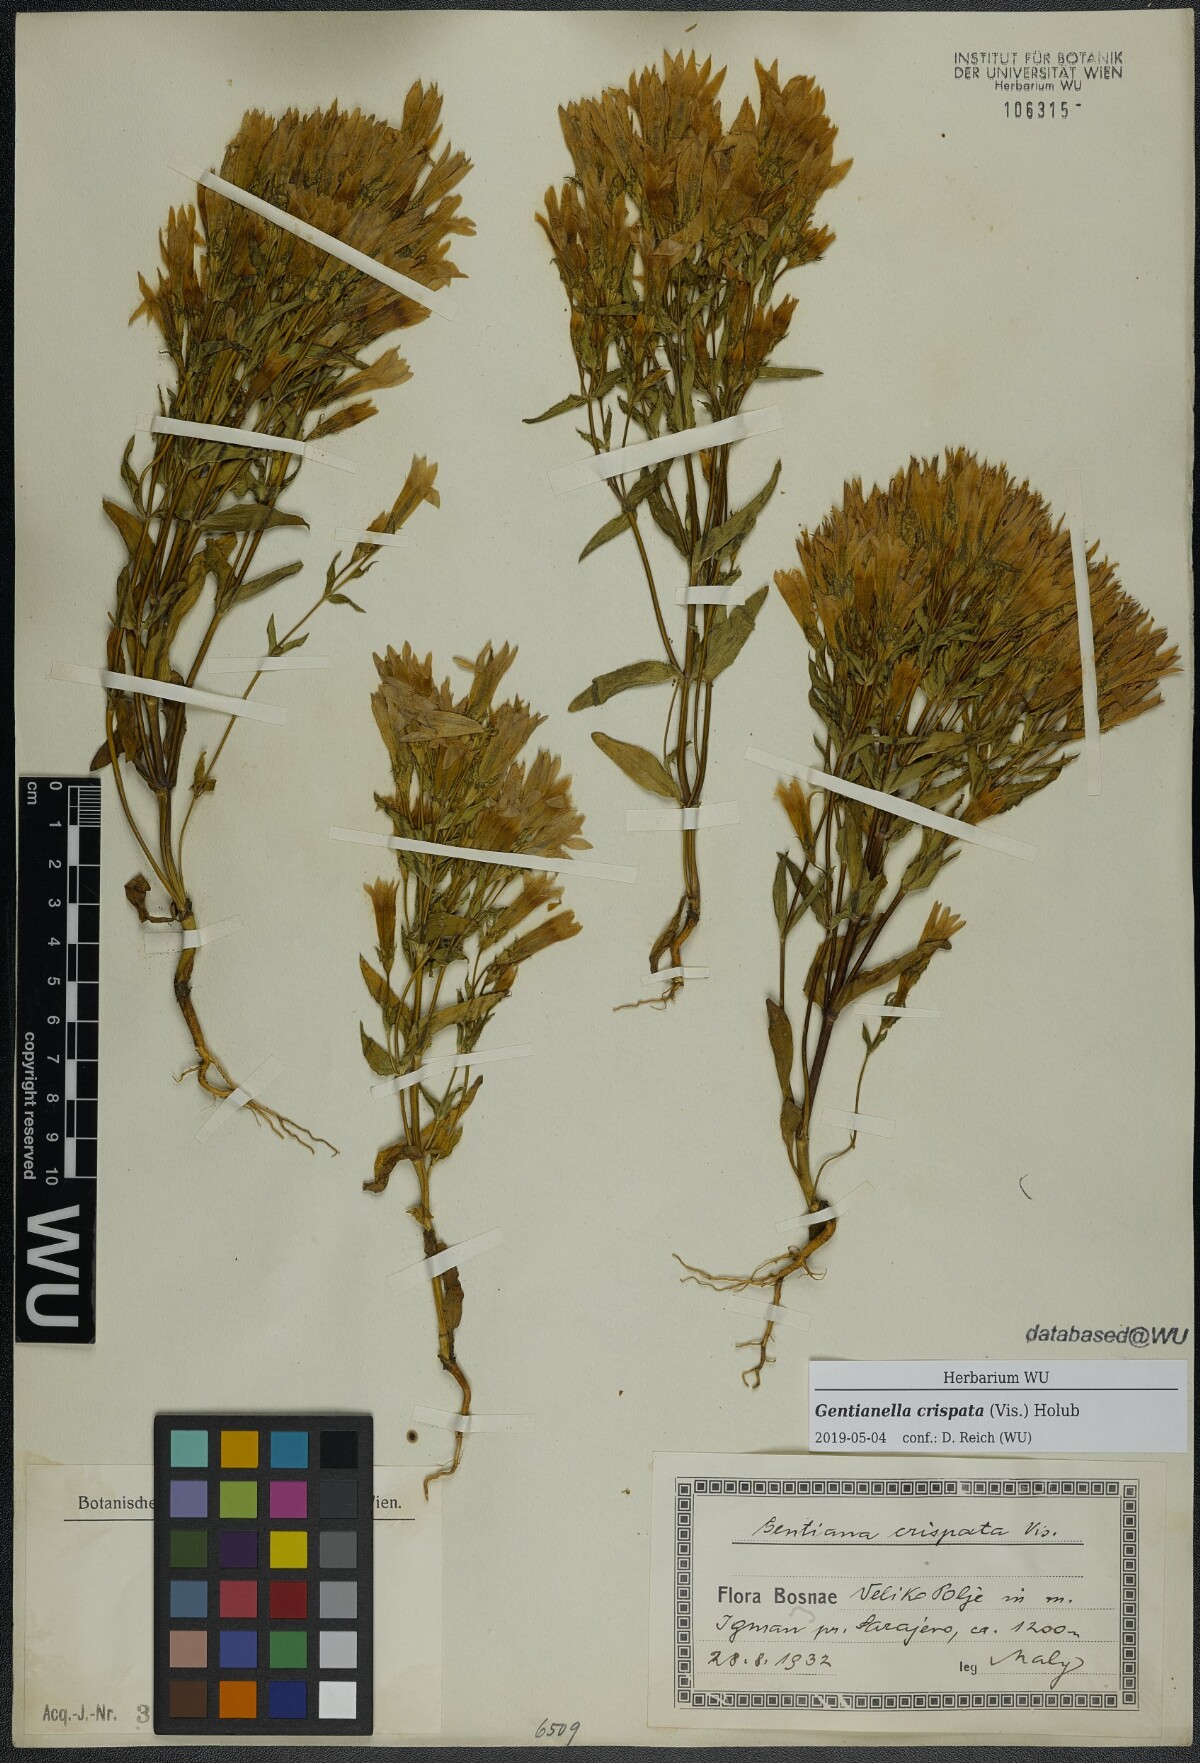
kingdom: Plantae
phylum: Tracheophyta
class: Magnoliopsida
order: Gentianales
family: Gentianaceae
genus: Gentianella
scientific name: Gentianella crispata
